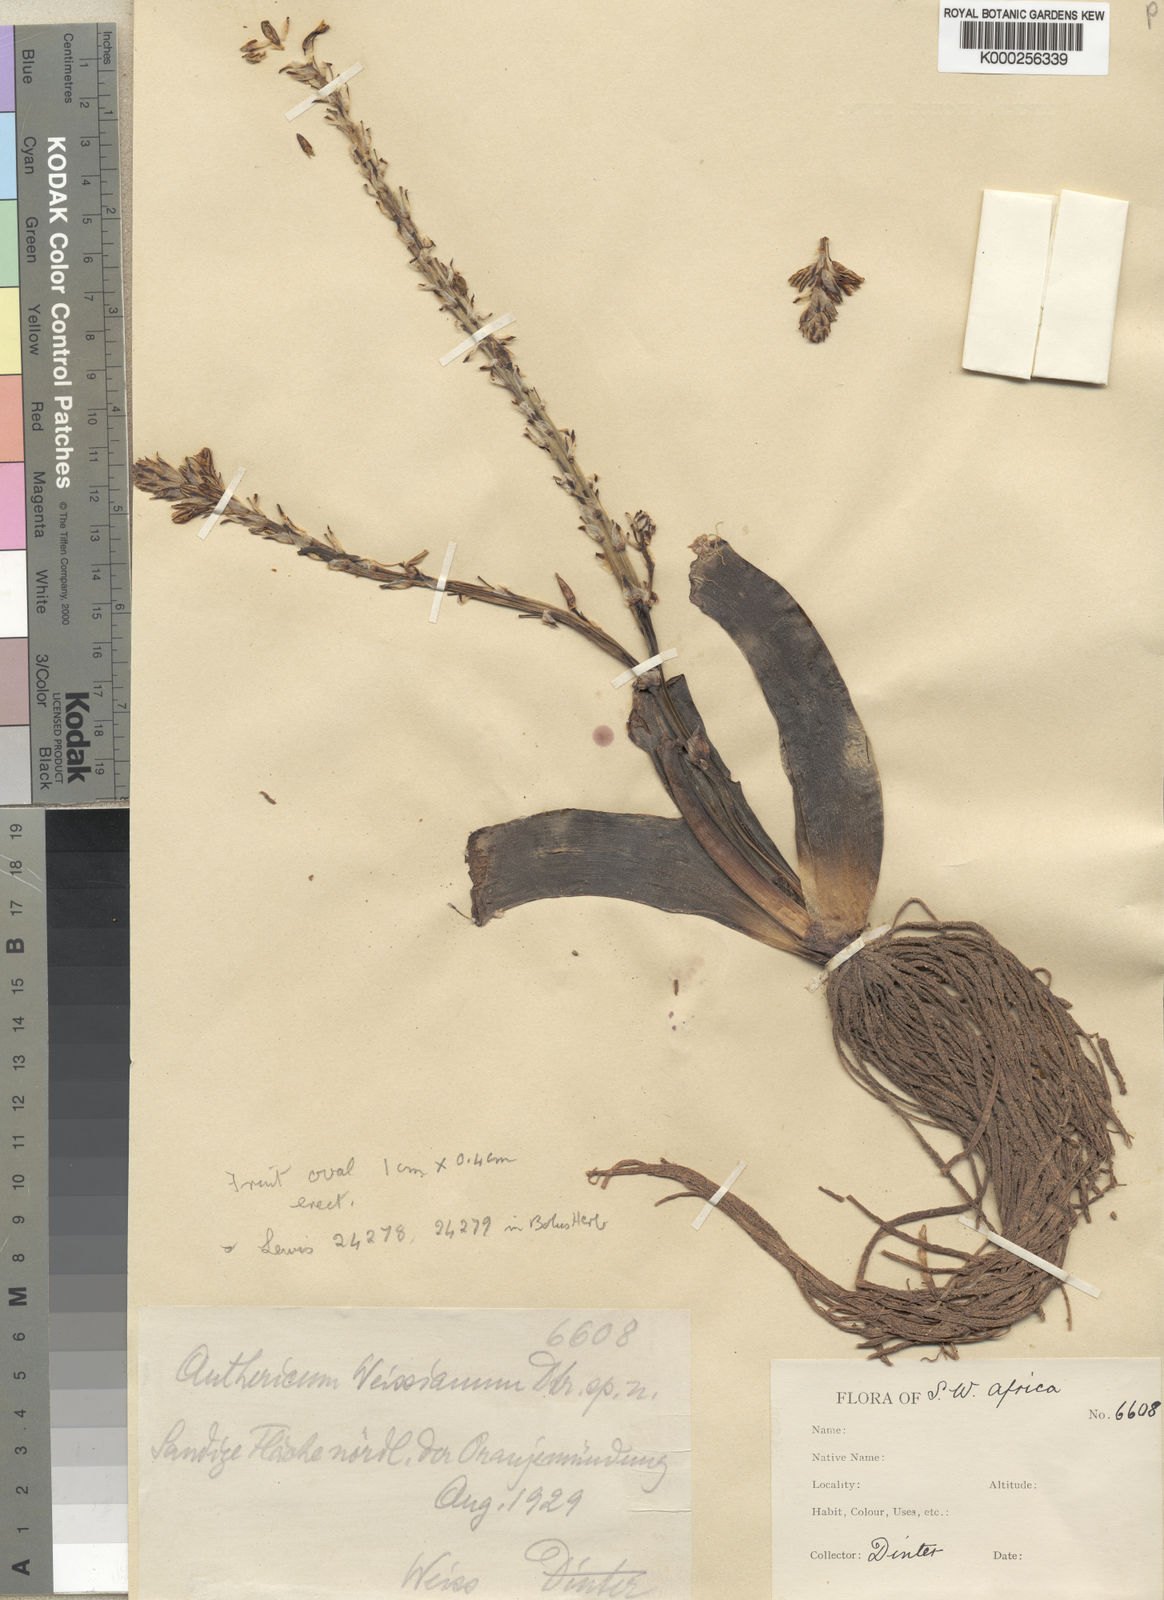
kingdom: Plantae
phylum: Tracheophyta
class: Liliopsida
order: Asparagales
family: Asphodelaceae
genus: Trachyandra
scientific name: Trachyandra falcata
